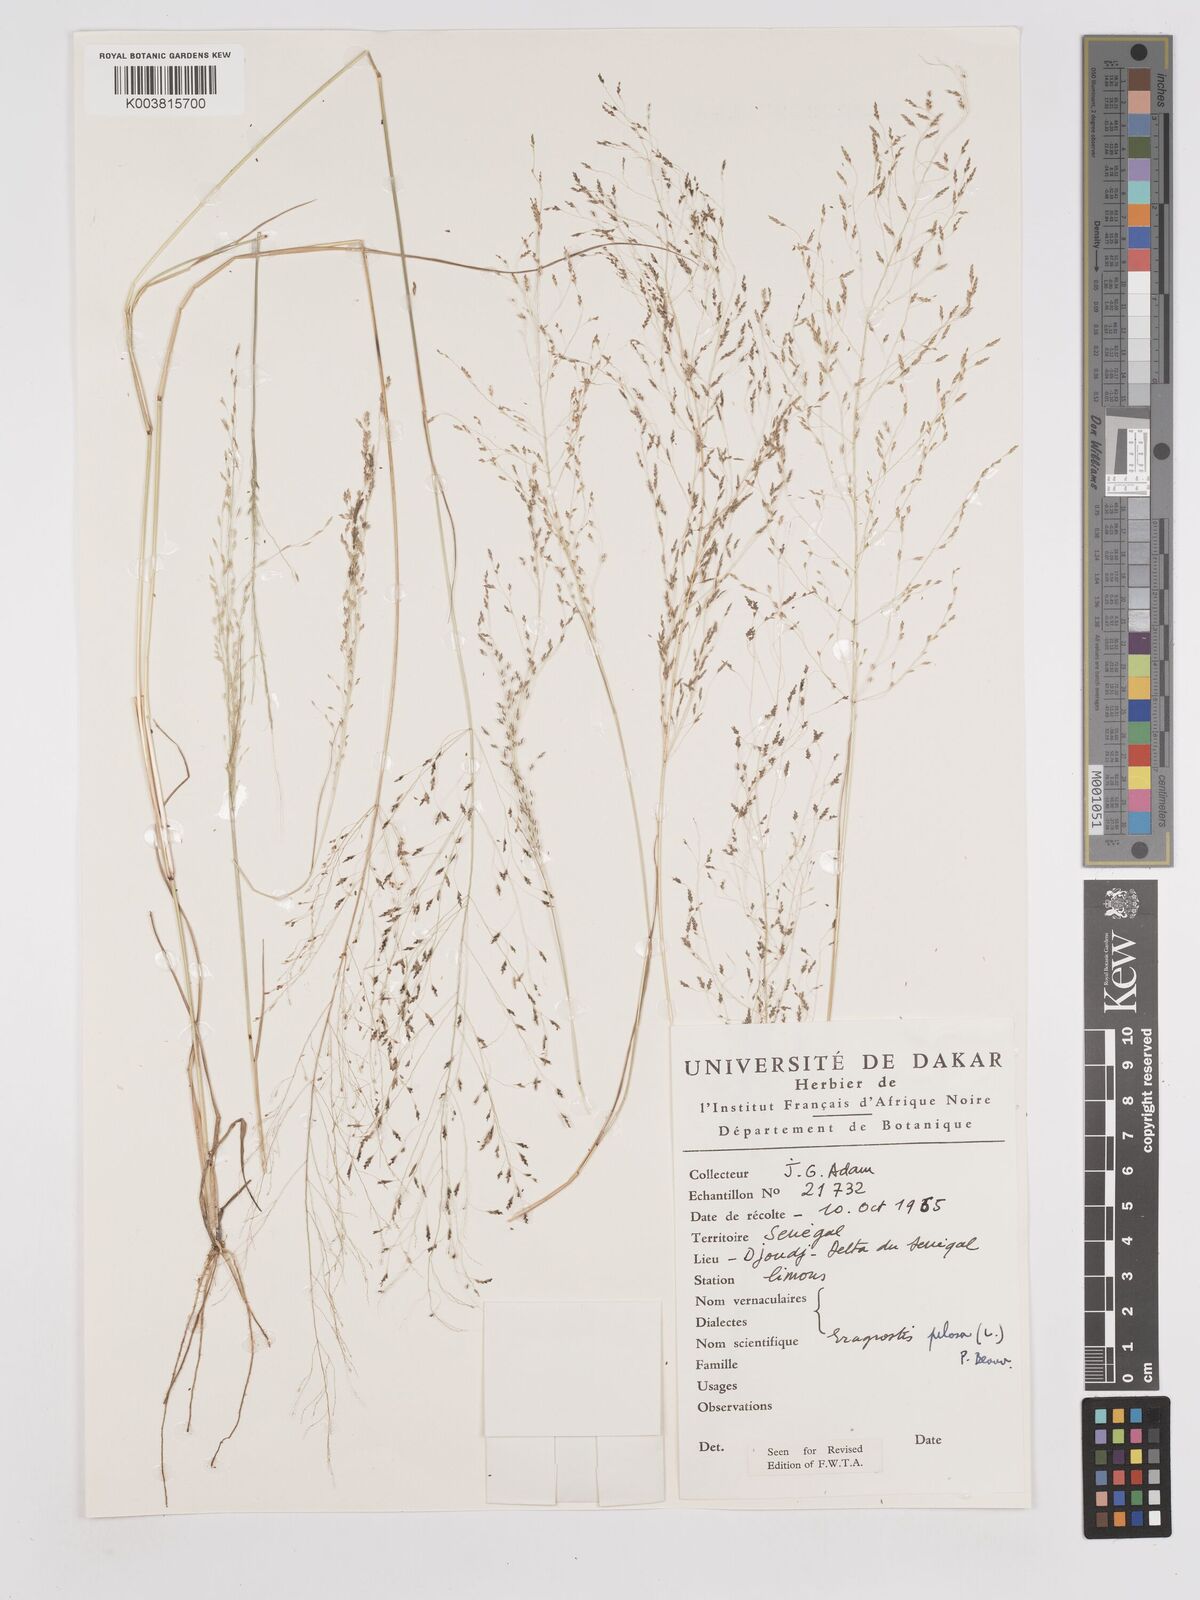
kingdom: Plantae
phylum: Tracheophyta
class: Liliopsida
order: Poales
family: Poaceae
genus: Eragrostis
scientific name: Eragrostis pilosa
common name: Indian lovegrass
